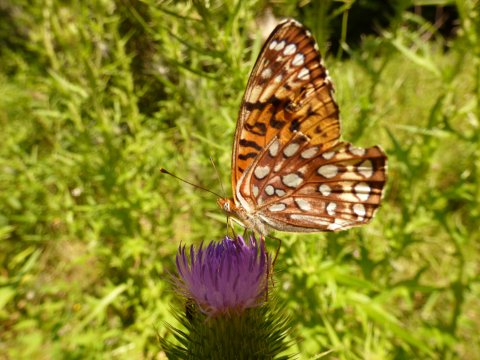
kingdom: Animalia
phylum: Arthropoda
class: Insecta
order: Lepidoptera
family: Nymphalidae
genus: Speyeria
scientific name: Speyeria atlantis
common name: Atlantis Fritillary
